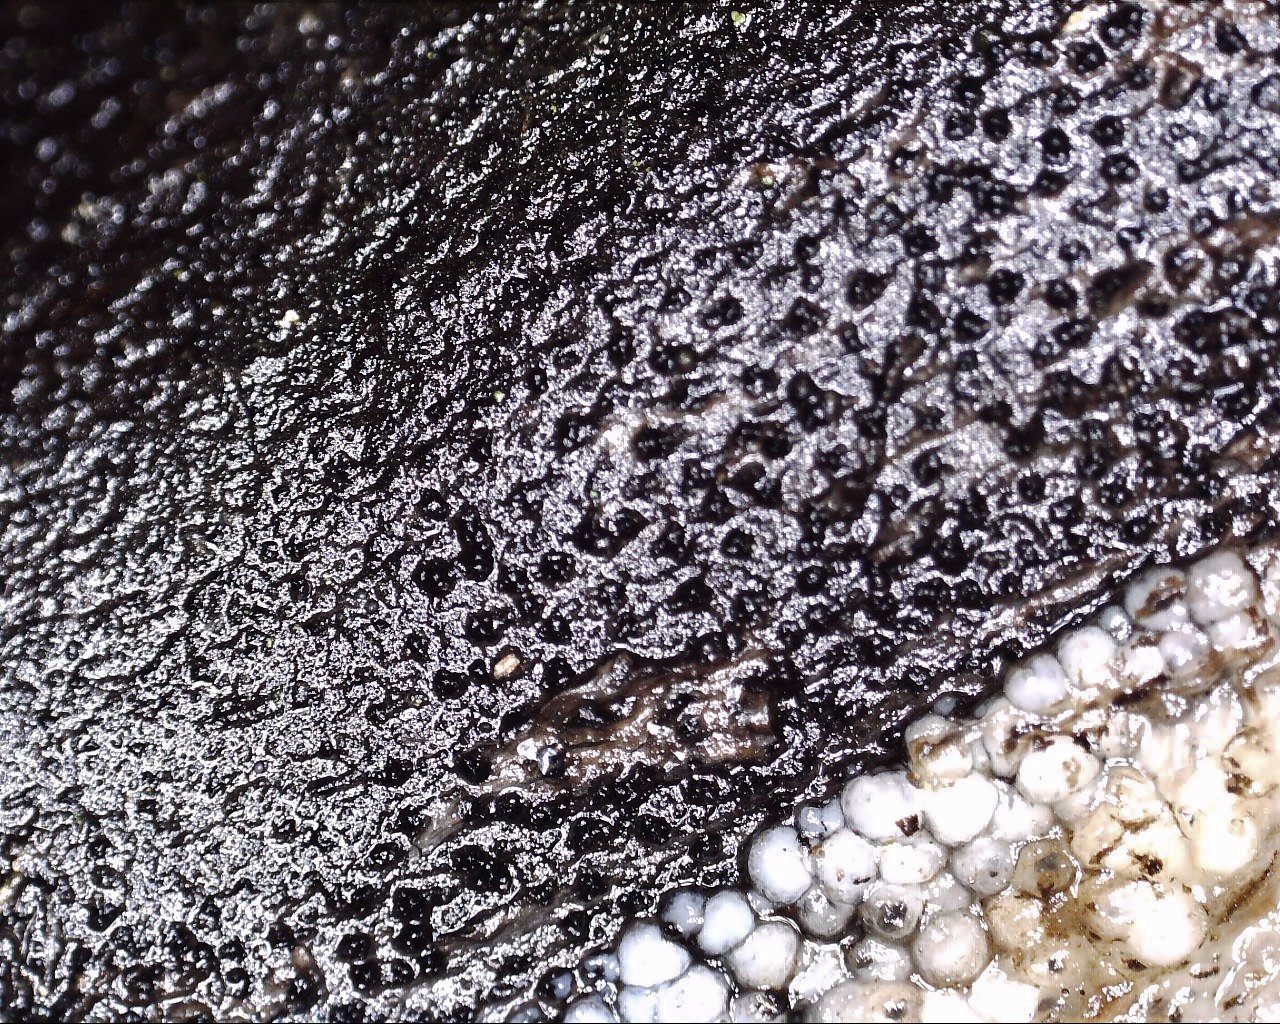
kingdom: Fungi
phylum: Basidiomycota
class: Tremellomycetes
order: Tremellales
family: Sirobasidiaceae
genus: Sirobasidium
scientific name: Sirobasidium albidum
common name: hvid kædebævresvamp
